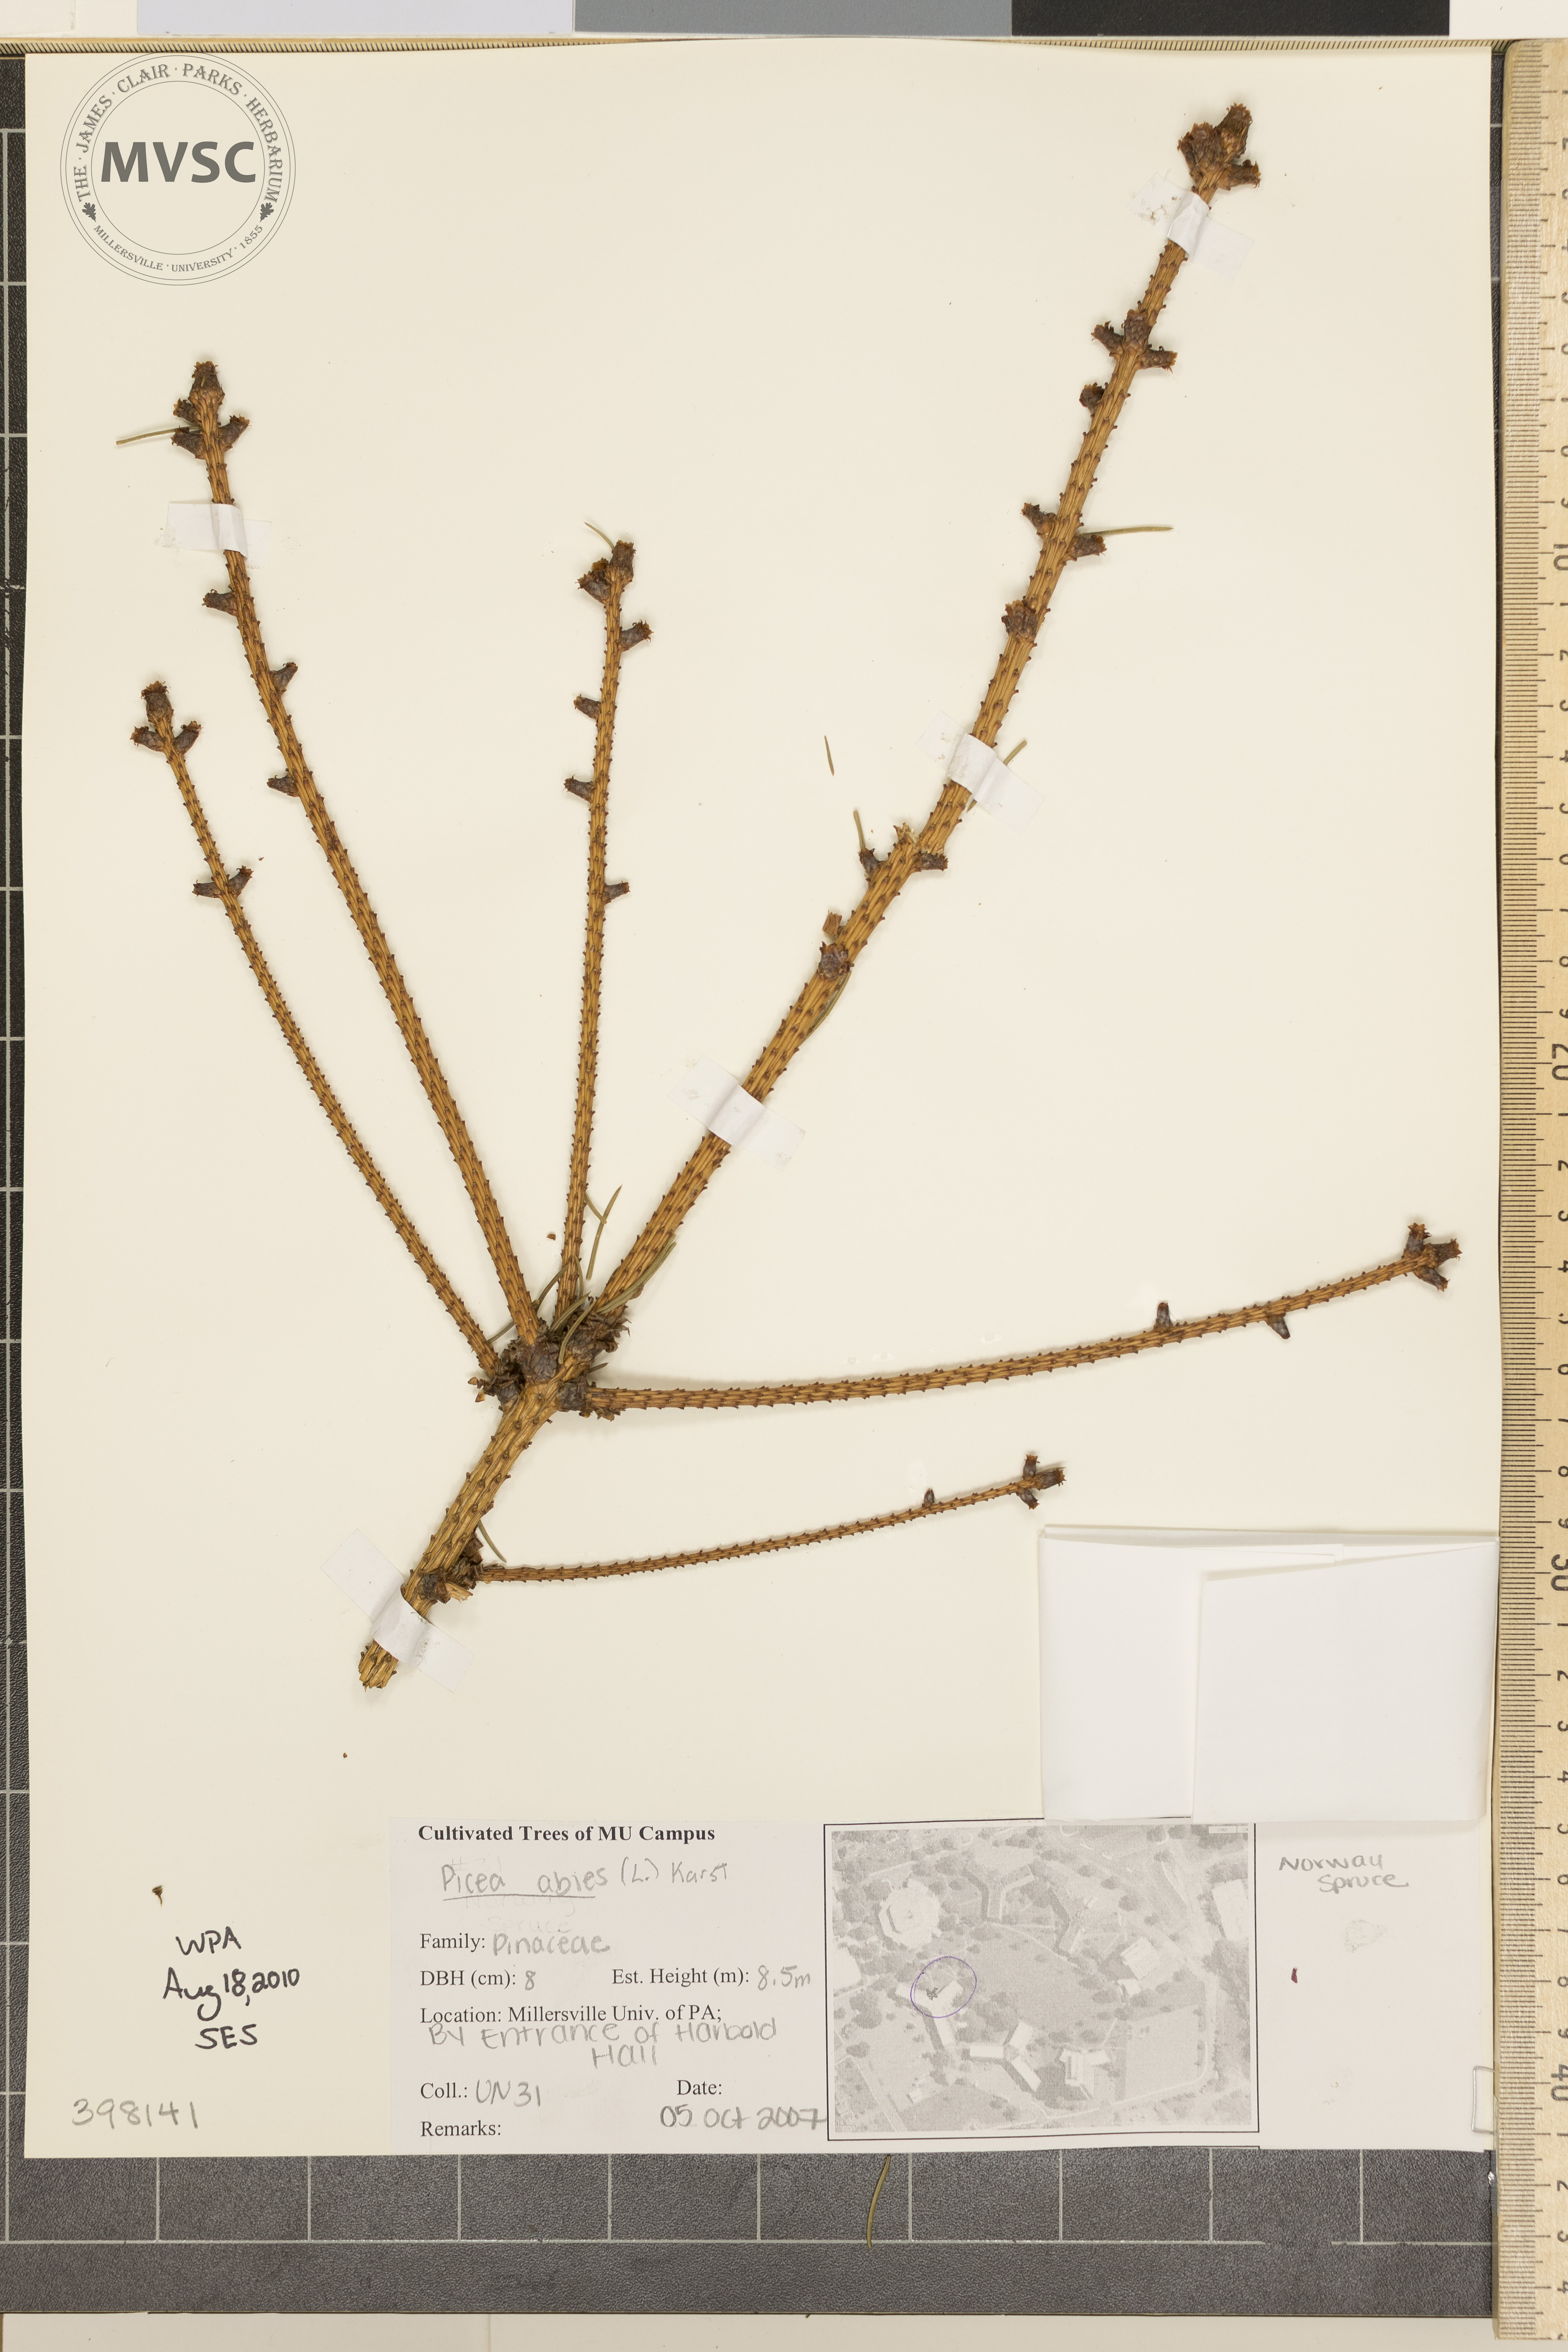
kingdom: Plantae
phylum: Tracheophyta
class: Pinopsida
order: Pinales
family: Pinaceae
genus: Picea
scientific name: Picea abies
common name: Norway spruce
